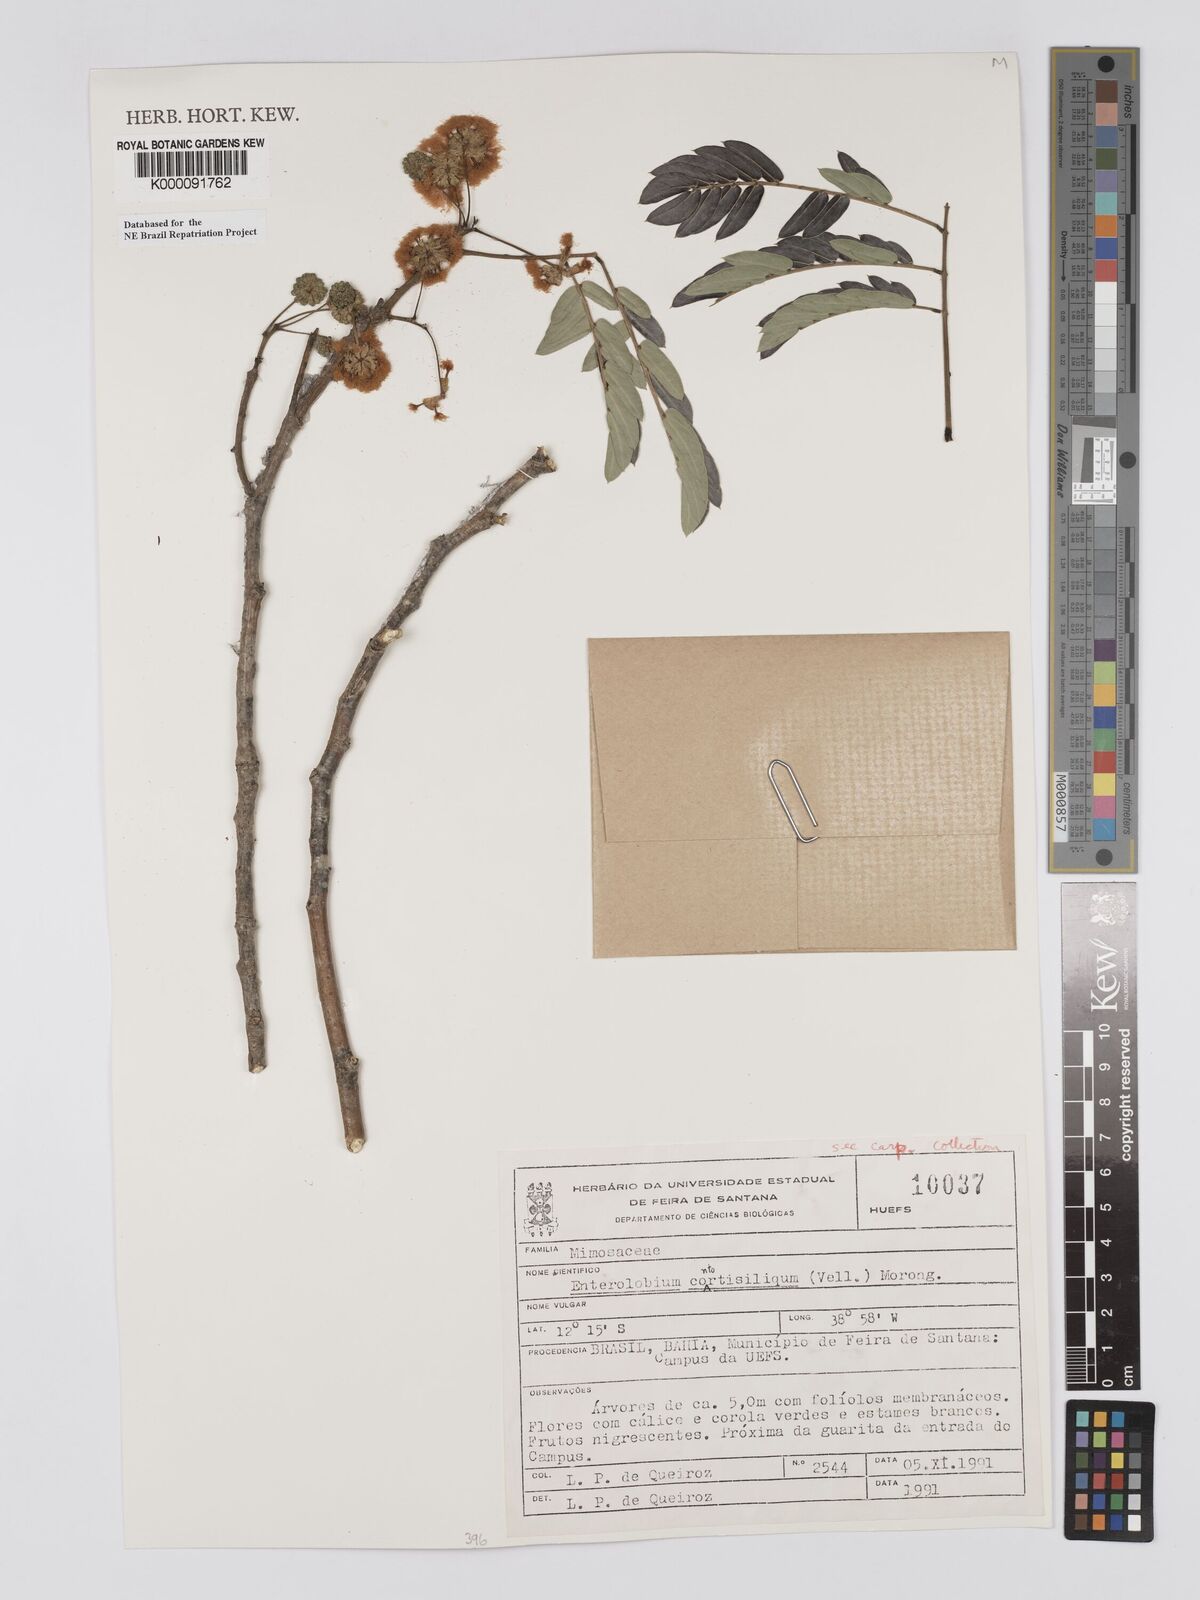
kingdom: Plantae
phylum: Tracheophyta
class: Magnoliopsida
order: Fabales
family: Fabaceae
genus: Enterolobium
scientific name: Enterolobium contortisiliquum
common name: Pacara earpod tree
